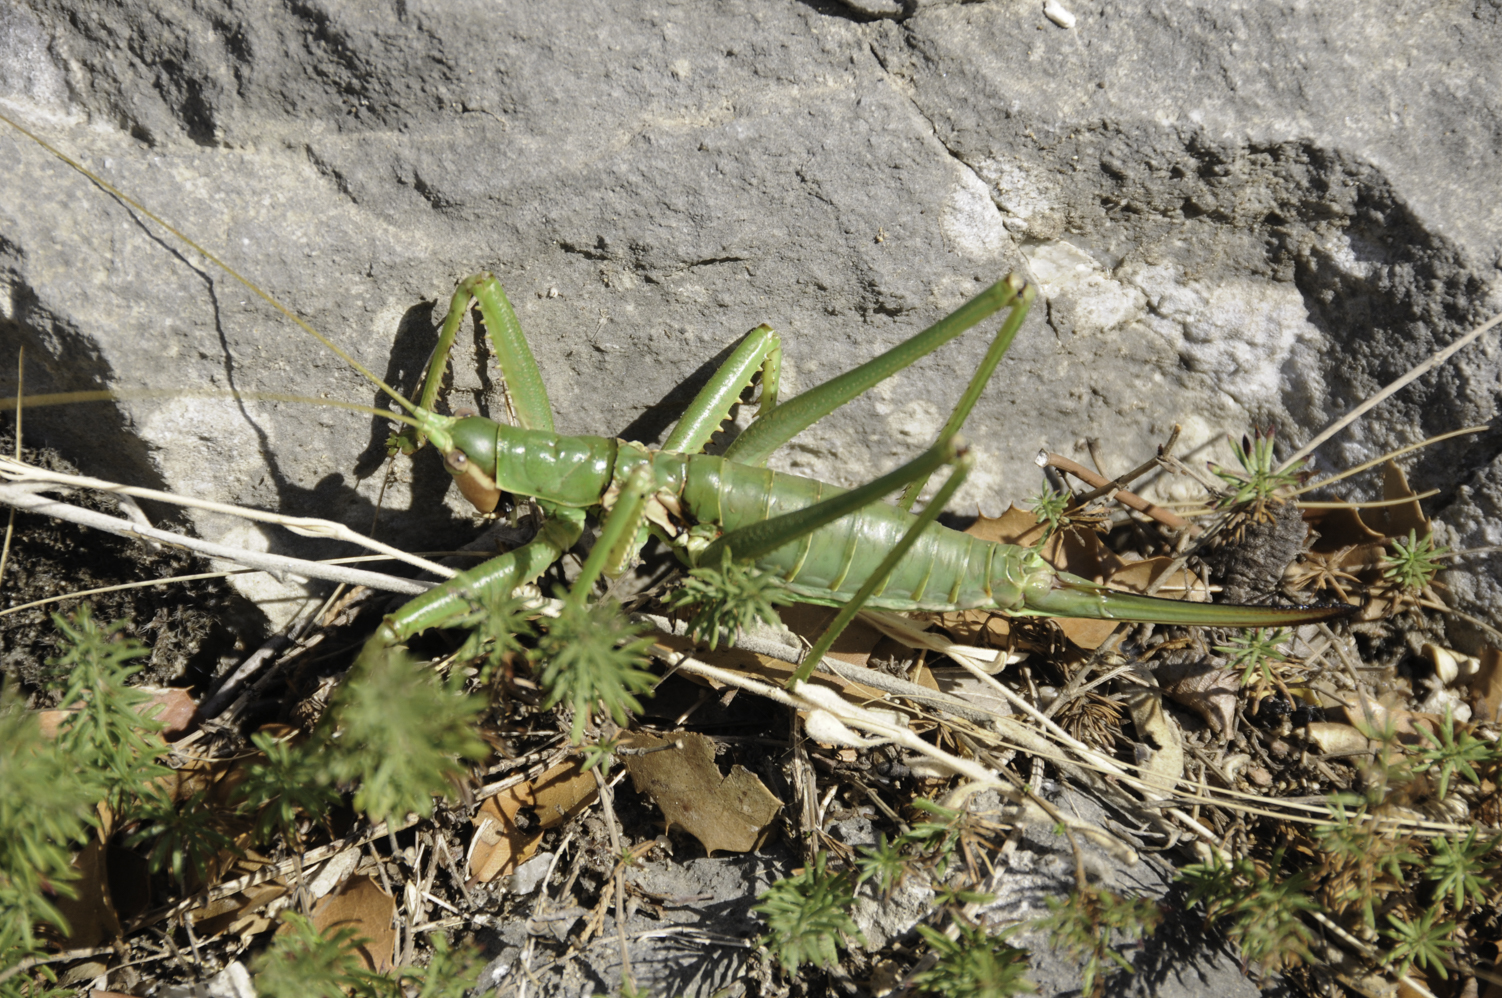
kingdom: Animalia
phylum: Arthropoda
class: Insecta
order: Orthoptera
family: Tettigoniidae
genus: Saga
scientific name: Saga hellenica
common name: Greek predatory bush-cricket
